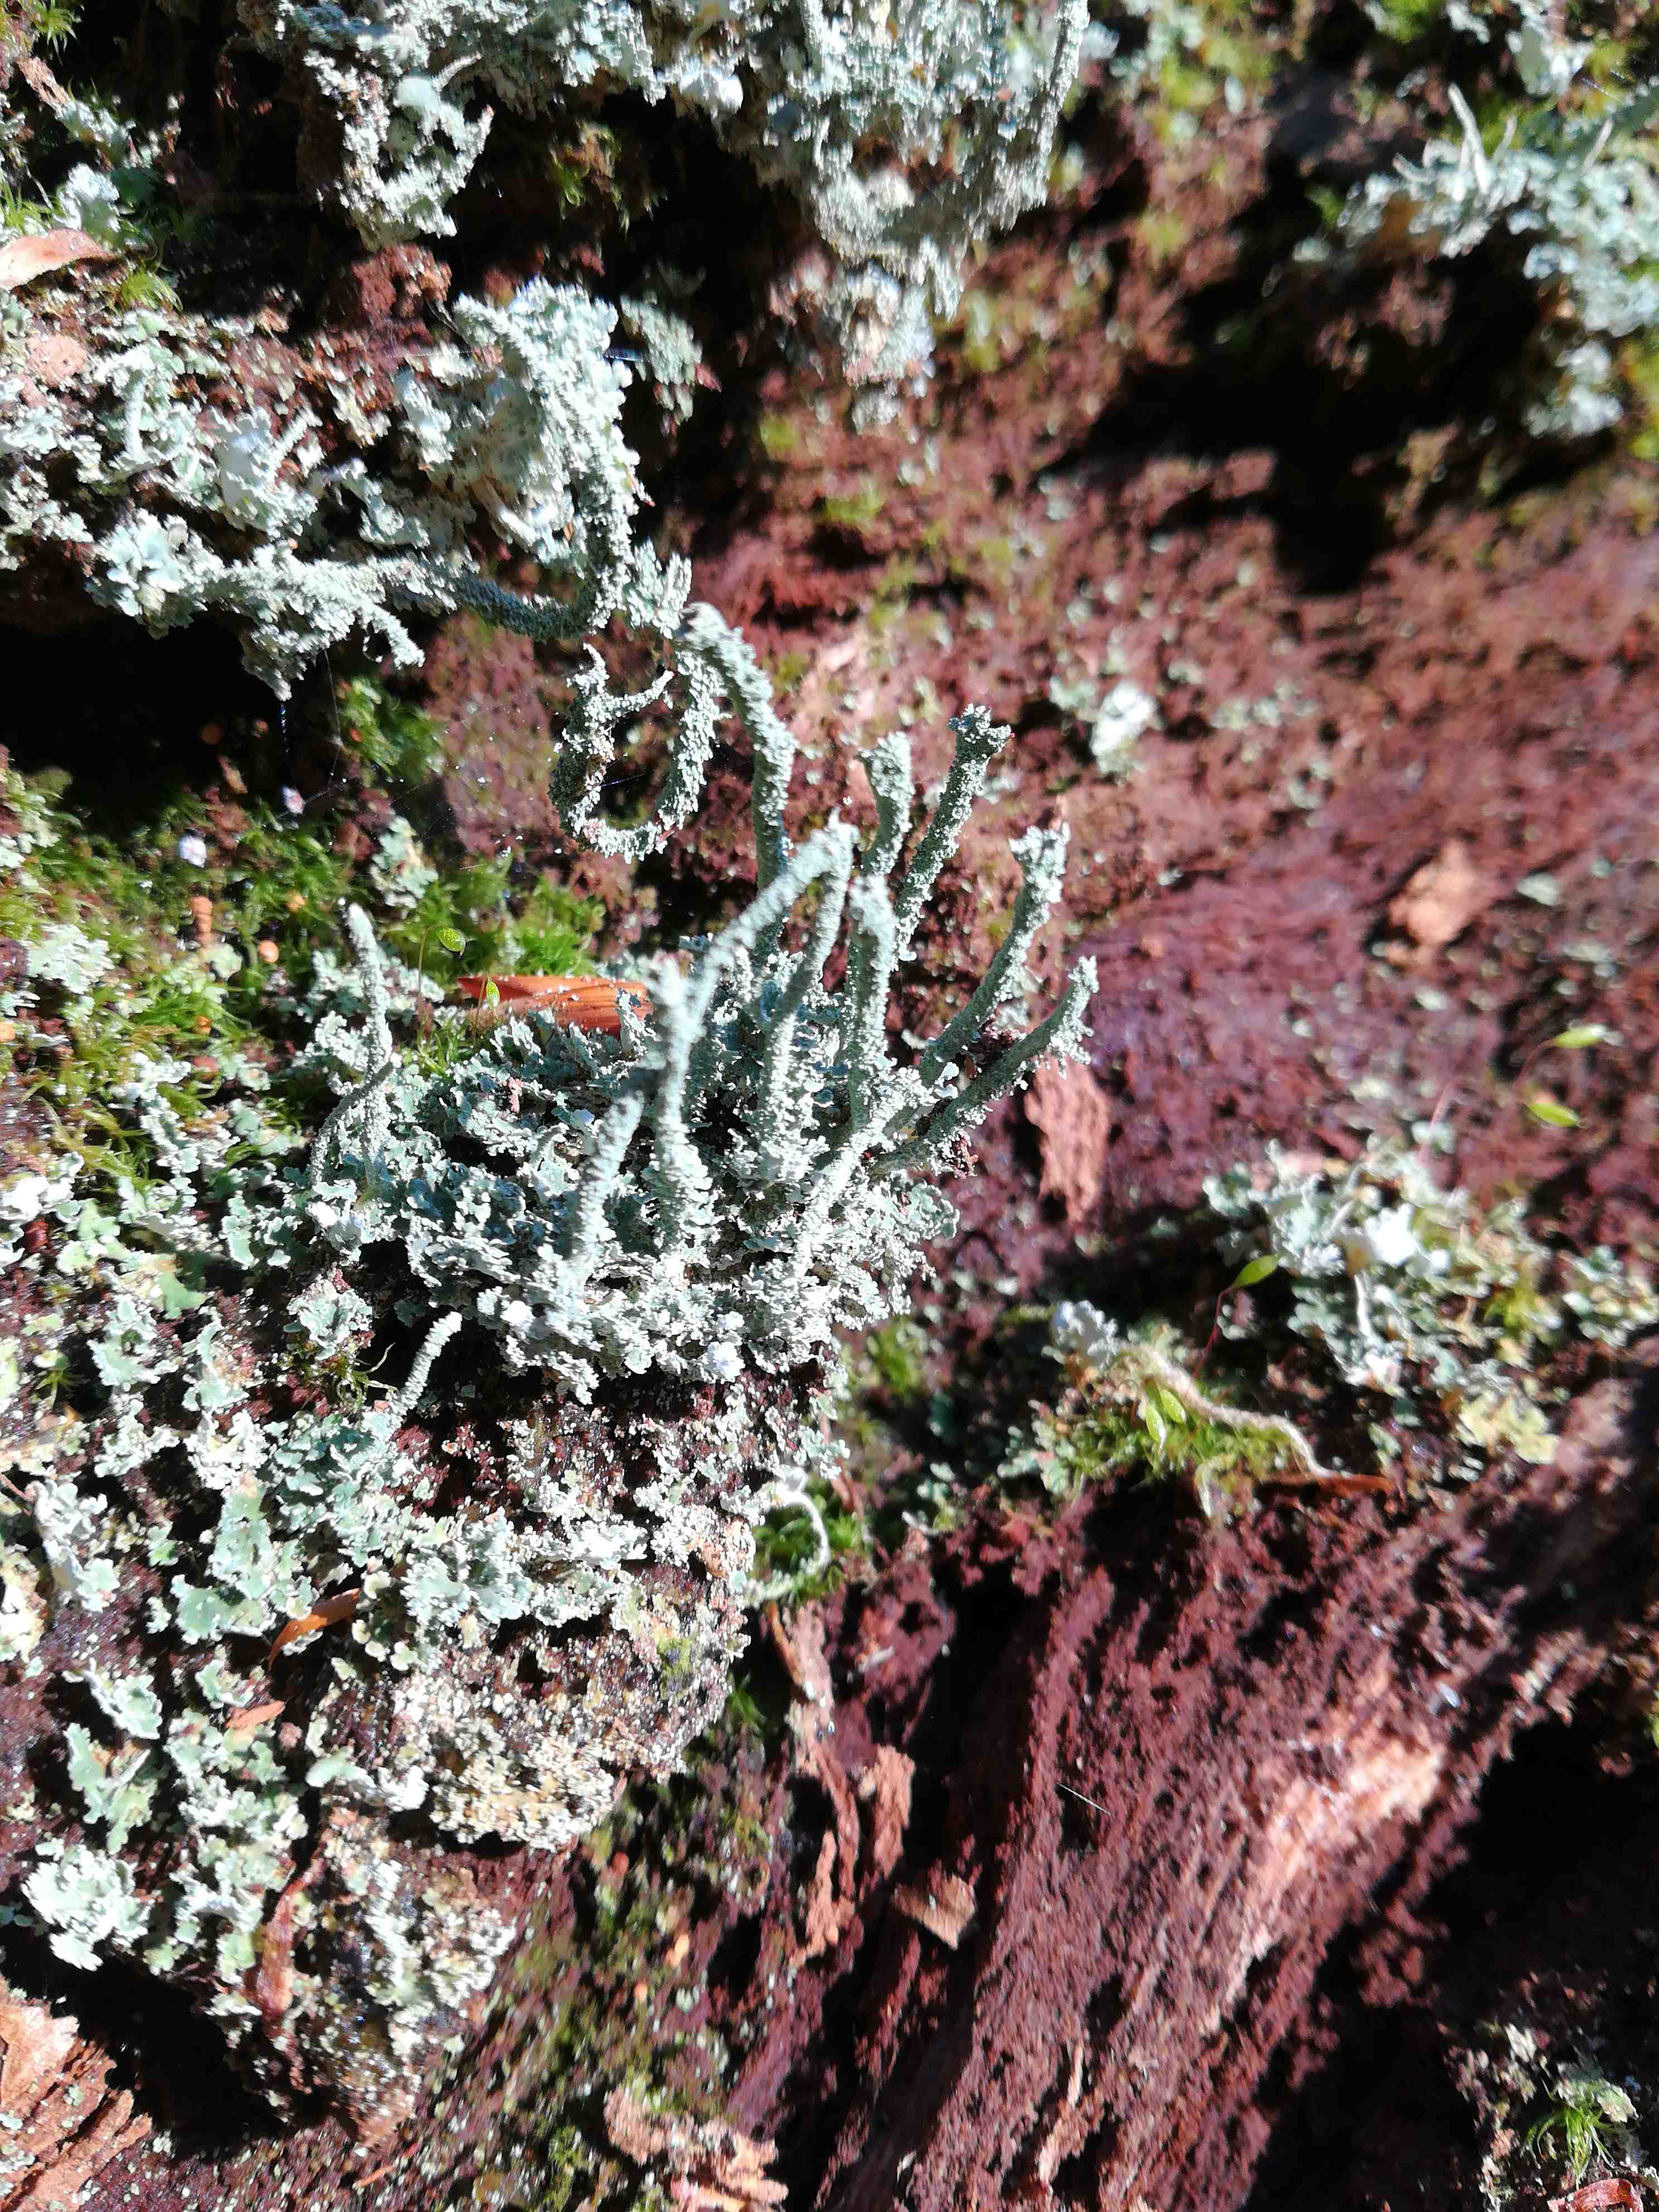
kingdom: Fungi
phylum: Ascomycota
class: Lecanoromycetes
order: Lecanorales
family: Cladoniaceae
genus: Cladonia
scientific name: Cladonia polydactyla
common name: vifte-bægerlav
